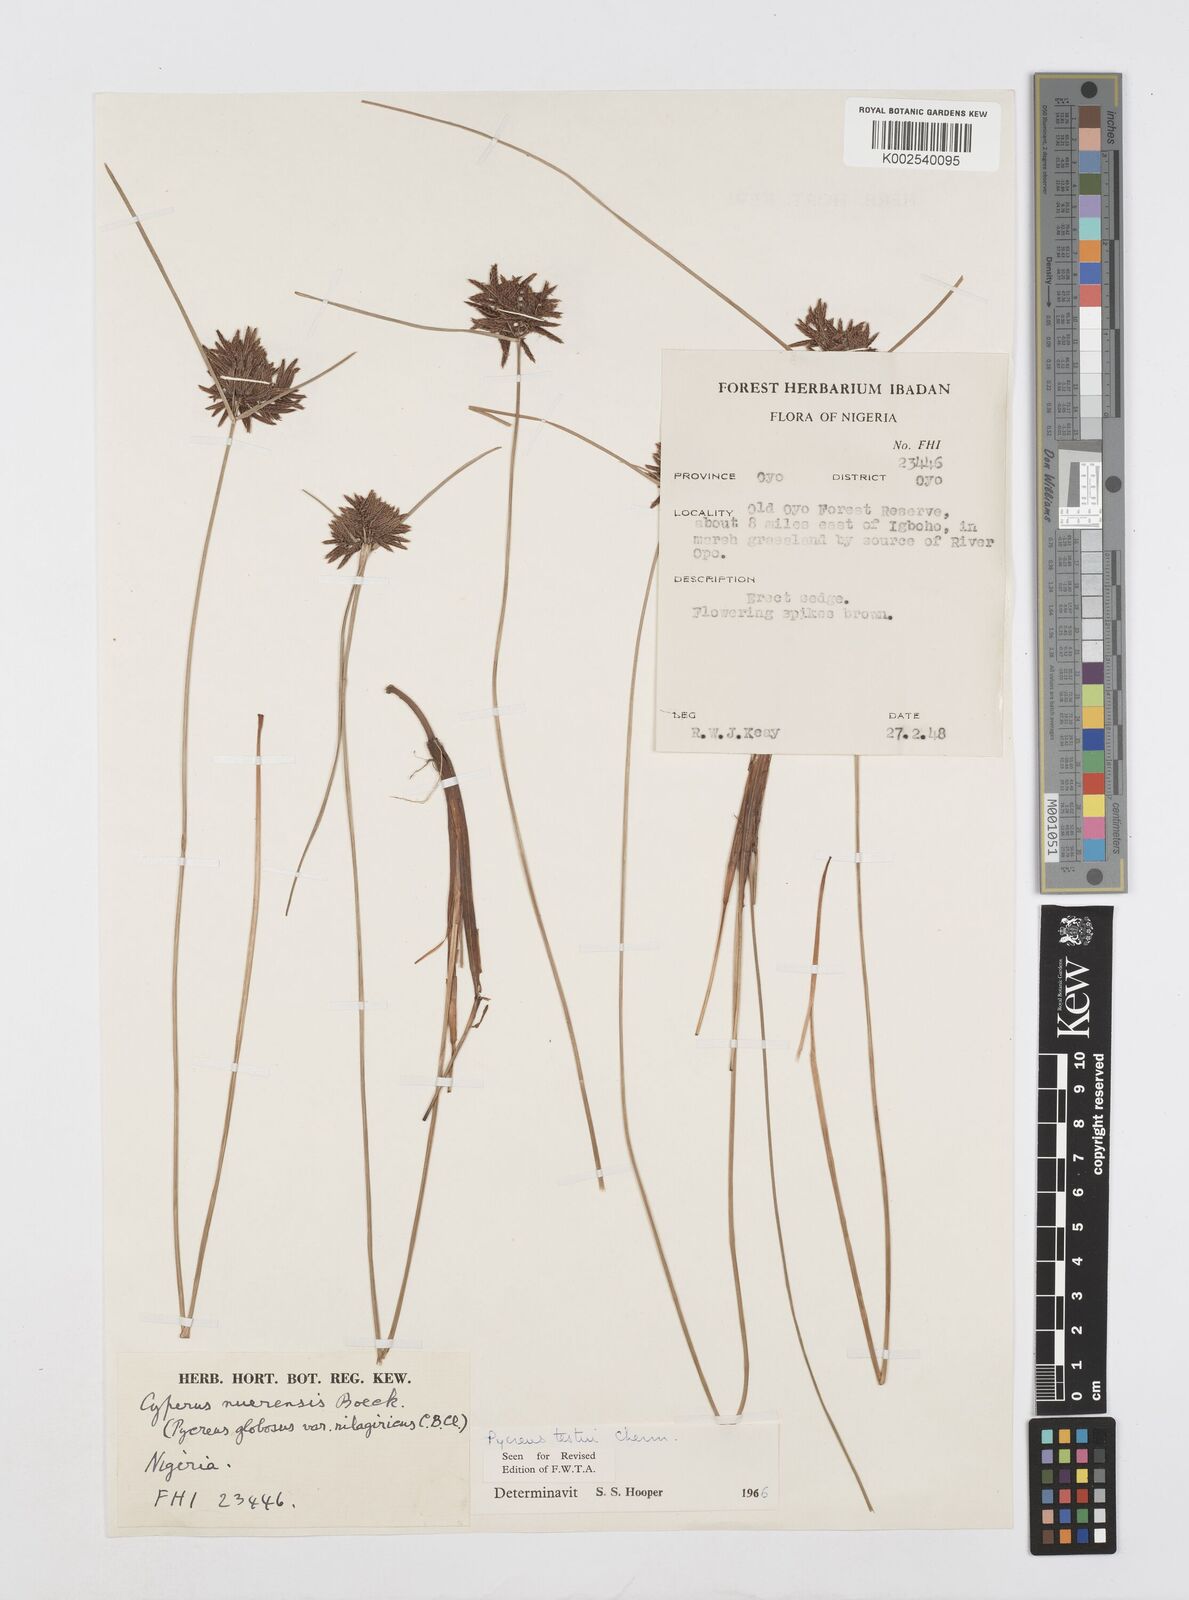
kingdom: Plantae
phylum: Tracheophyta
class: Liliopsida
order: Poales
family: Cyperaceae
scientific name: Cyperaceae
